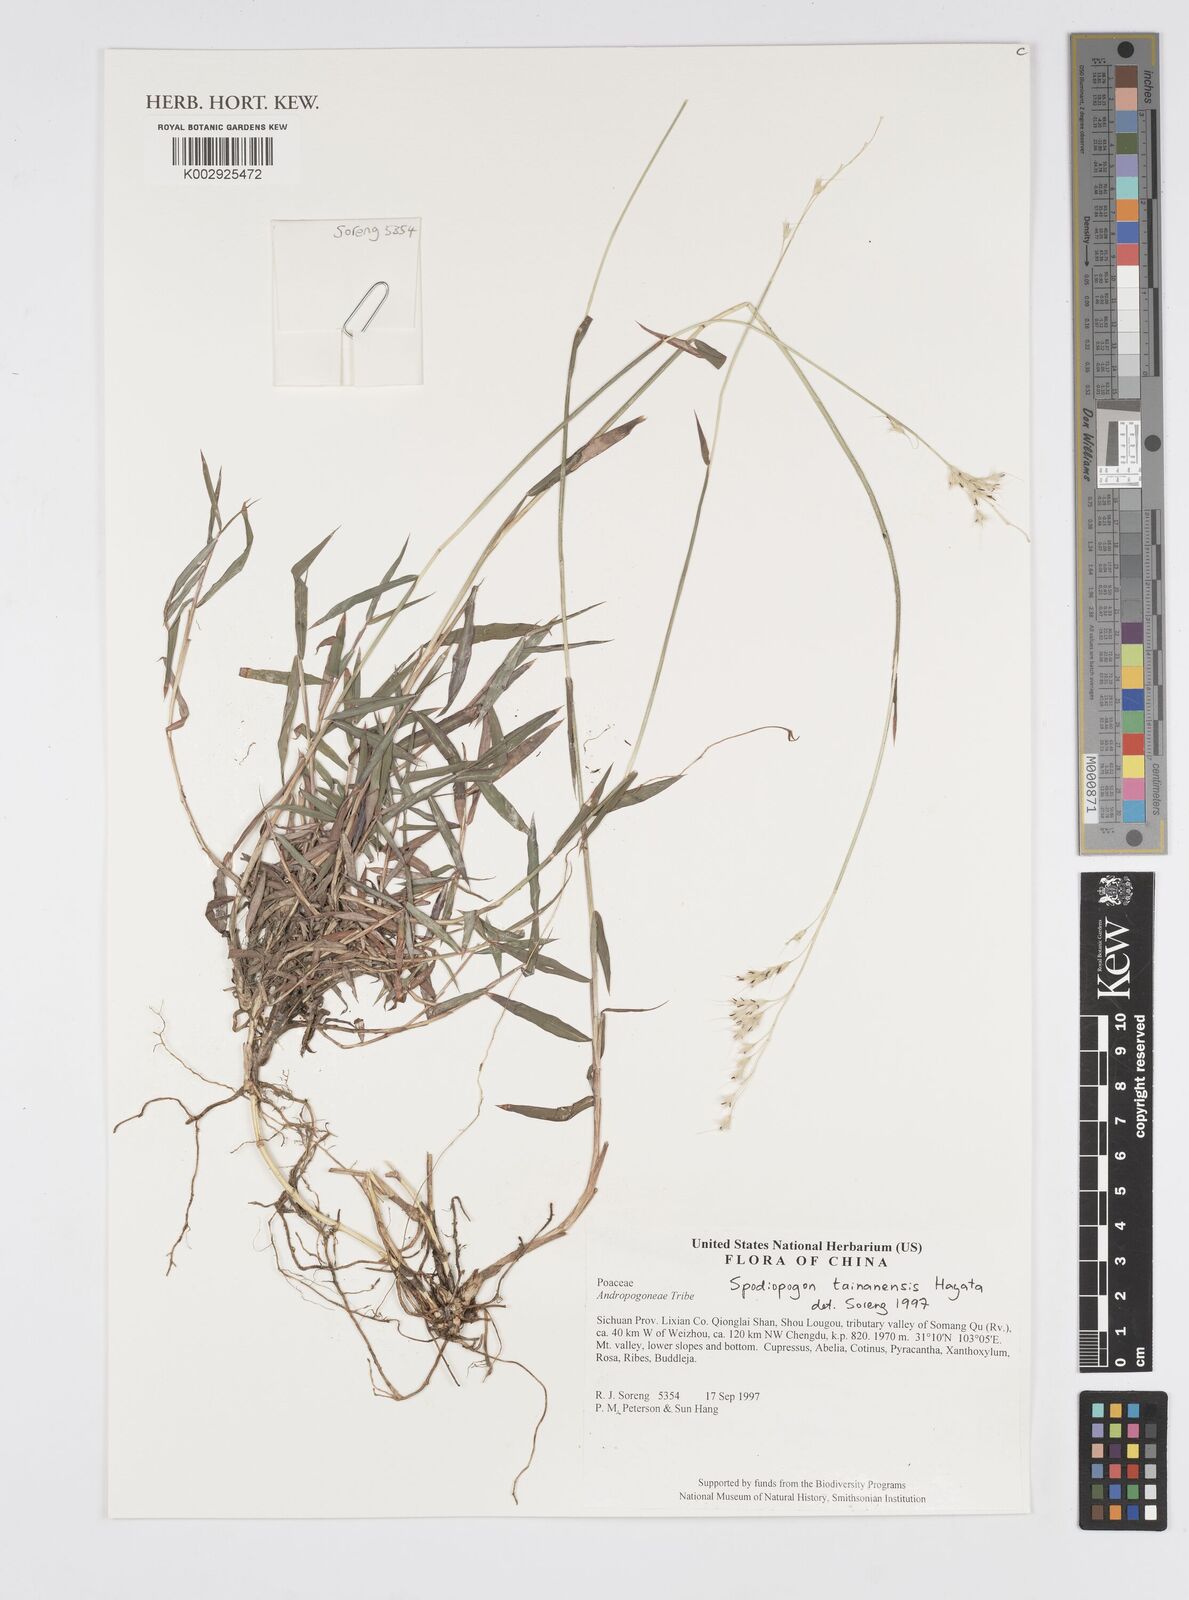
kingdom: Plantae
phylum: Tracheophyta
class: Liliopsida
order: Poales
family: Poaceae
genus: Spodiopogon
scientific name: Spodiopogon tainanensis
